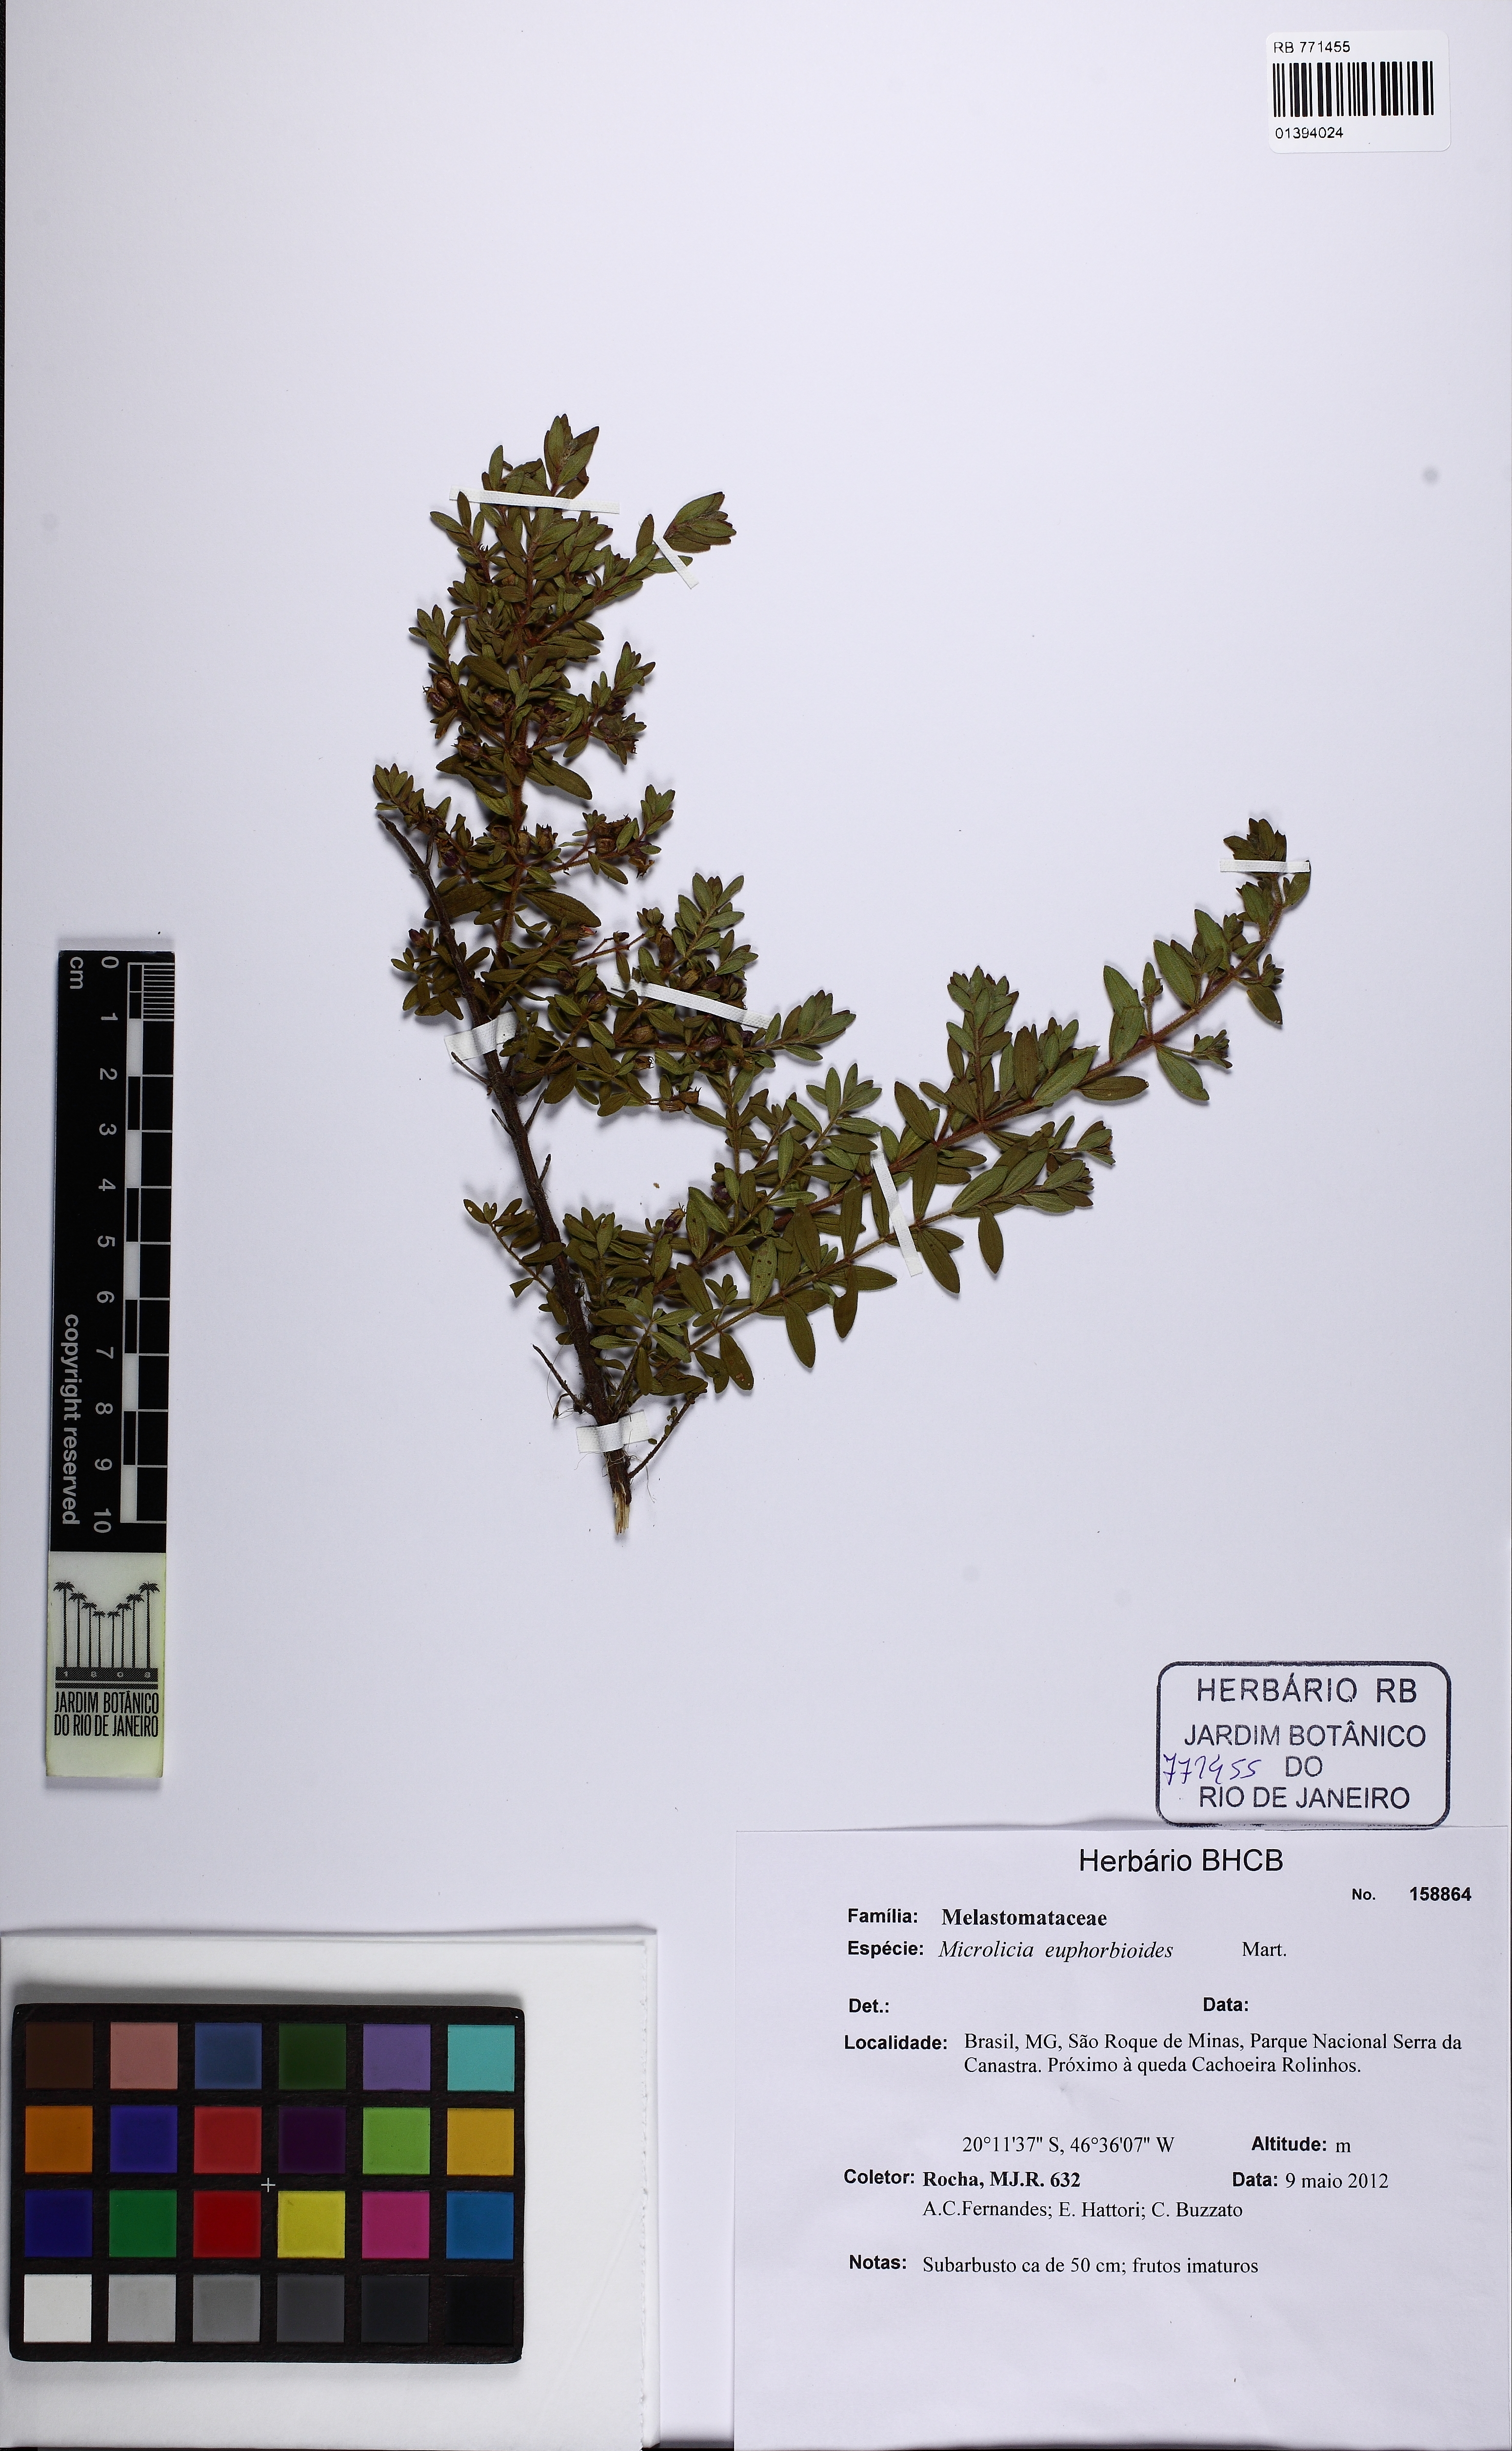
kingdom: Plantae
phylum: Tracheophyta
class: Magnoliopsida
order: Myrtales
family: Melastomataceae
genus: Microlicia
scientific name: Microlicia euphorbioides
